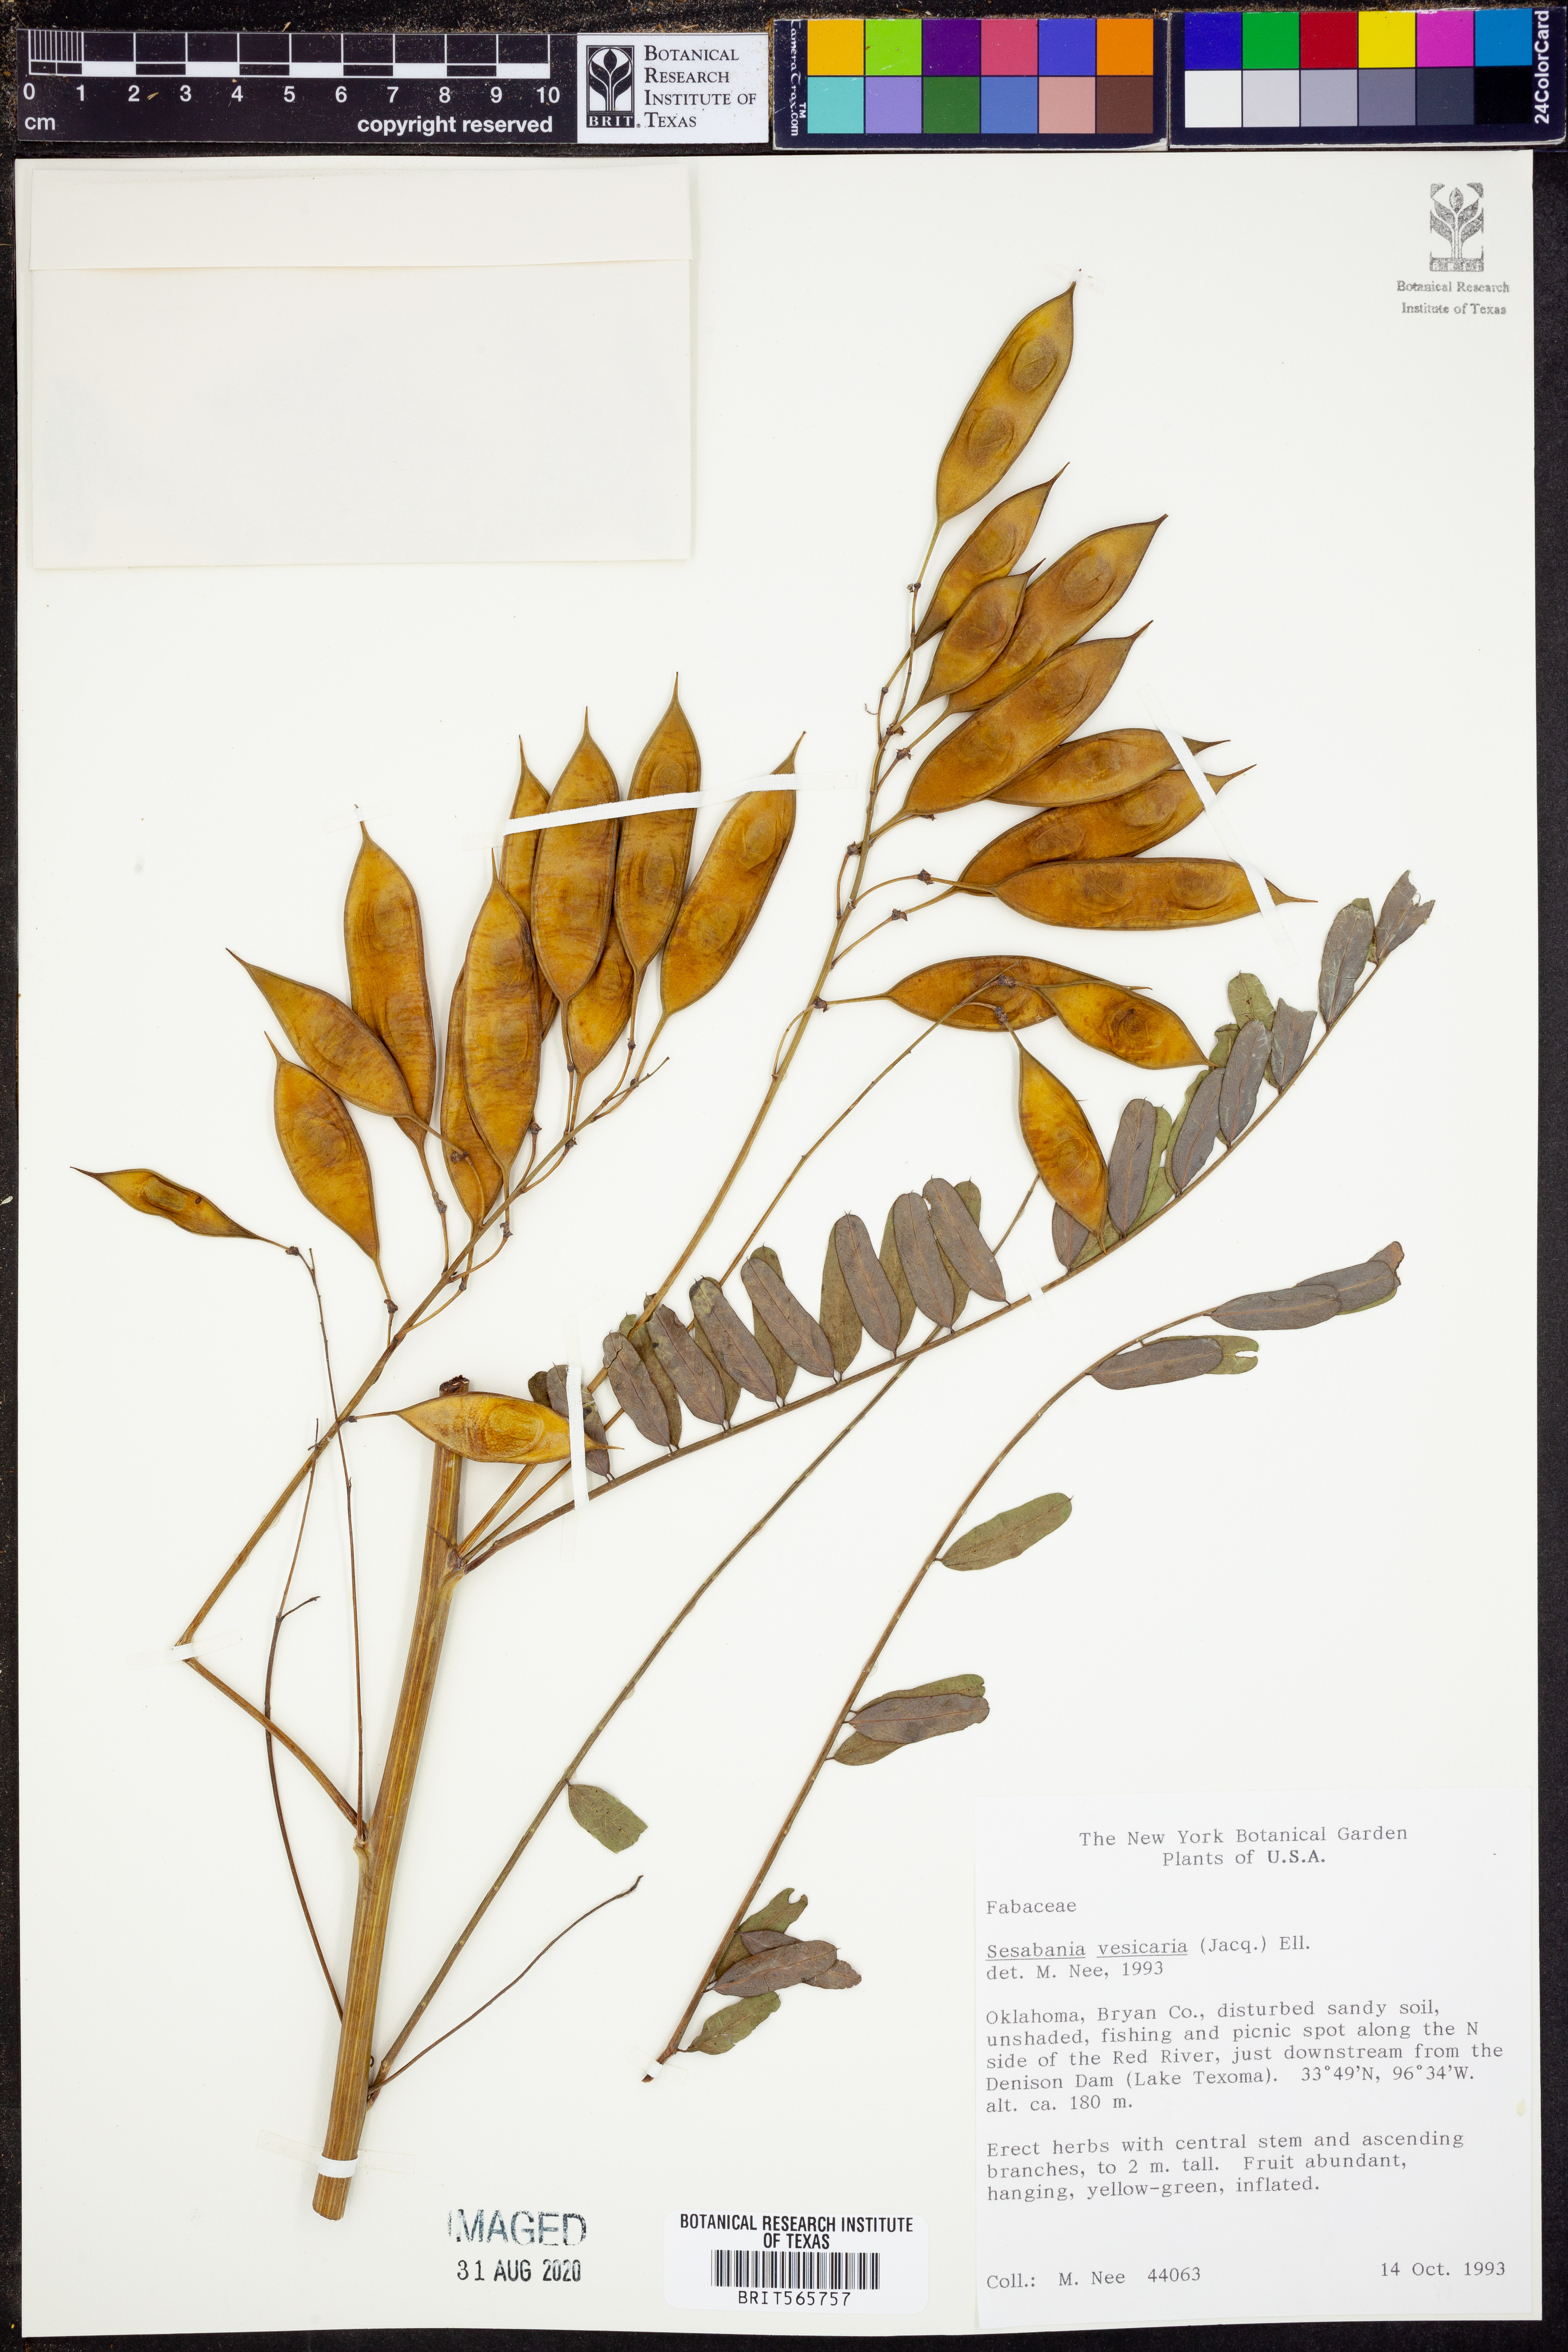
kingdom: Plantae
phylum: Tracheophyta
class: Magnoliopsida
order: Fabales
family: Fabaceae
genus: Sesbania
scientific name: Sesbania vesicaria
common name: Bagpod
